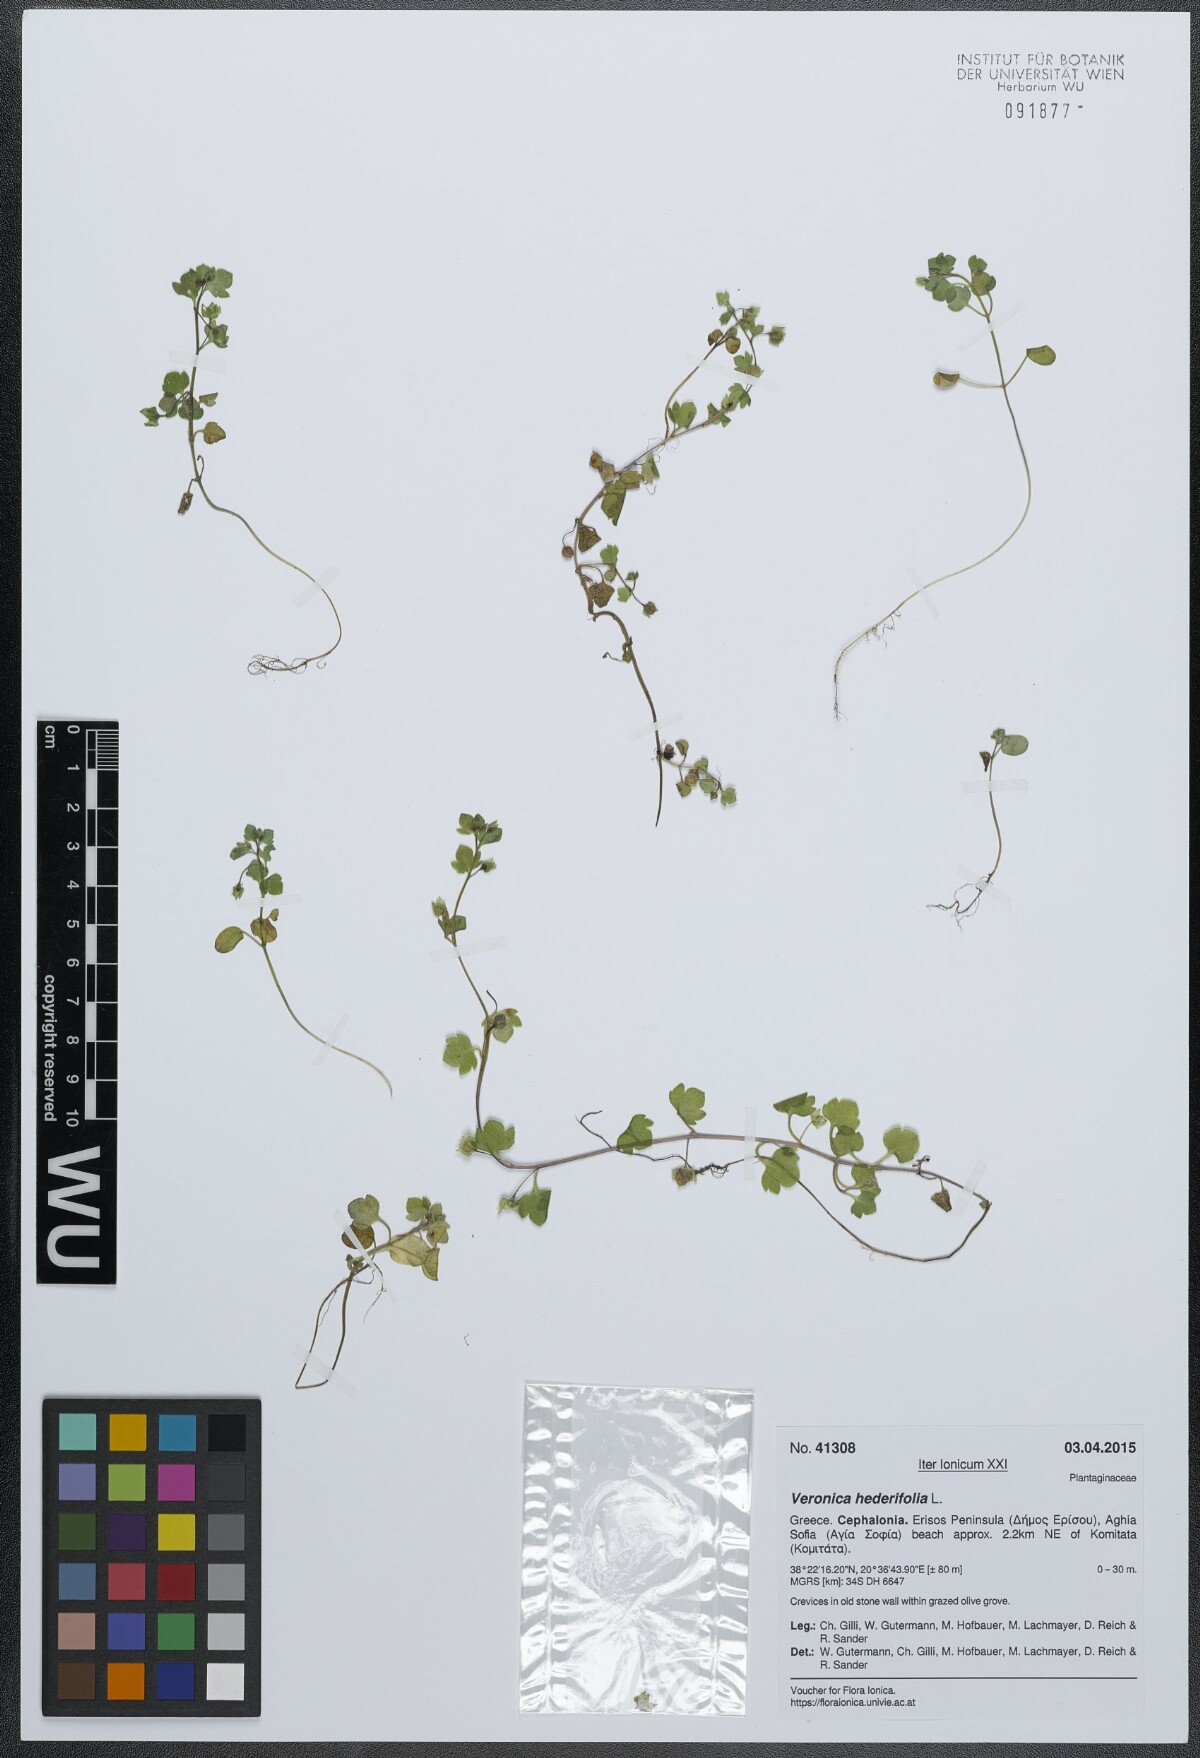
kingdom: Plantae
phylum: Tracheophyta
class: Magnoliopsida
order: Lamiales
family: Plantaginaceae
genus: Veronica
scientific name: Veronica hederifolia
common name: Ivy-leaved speedwell
